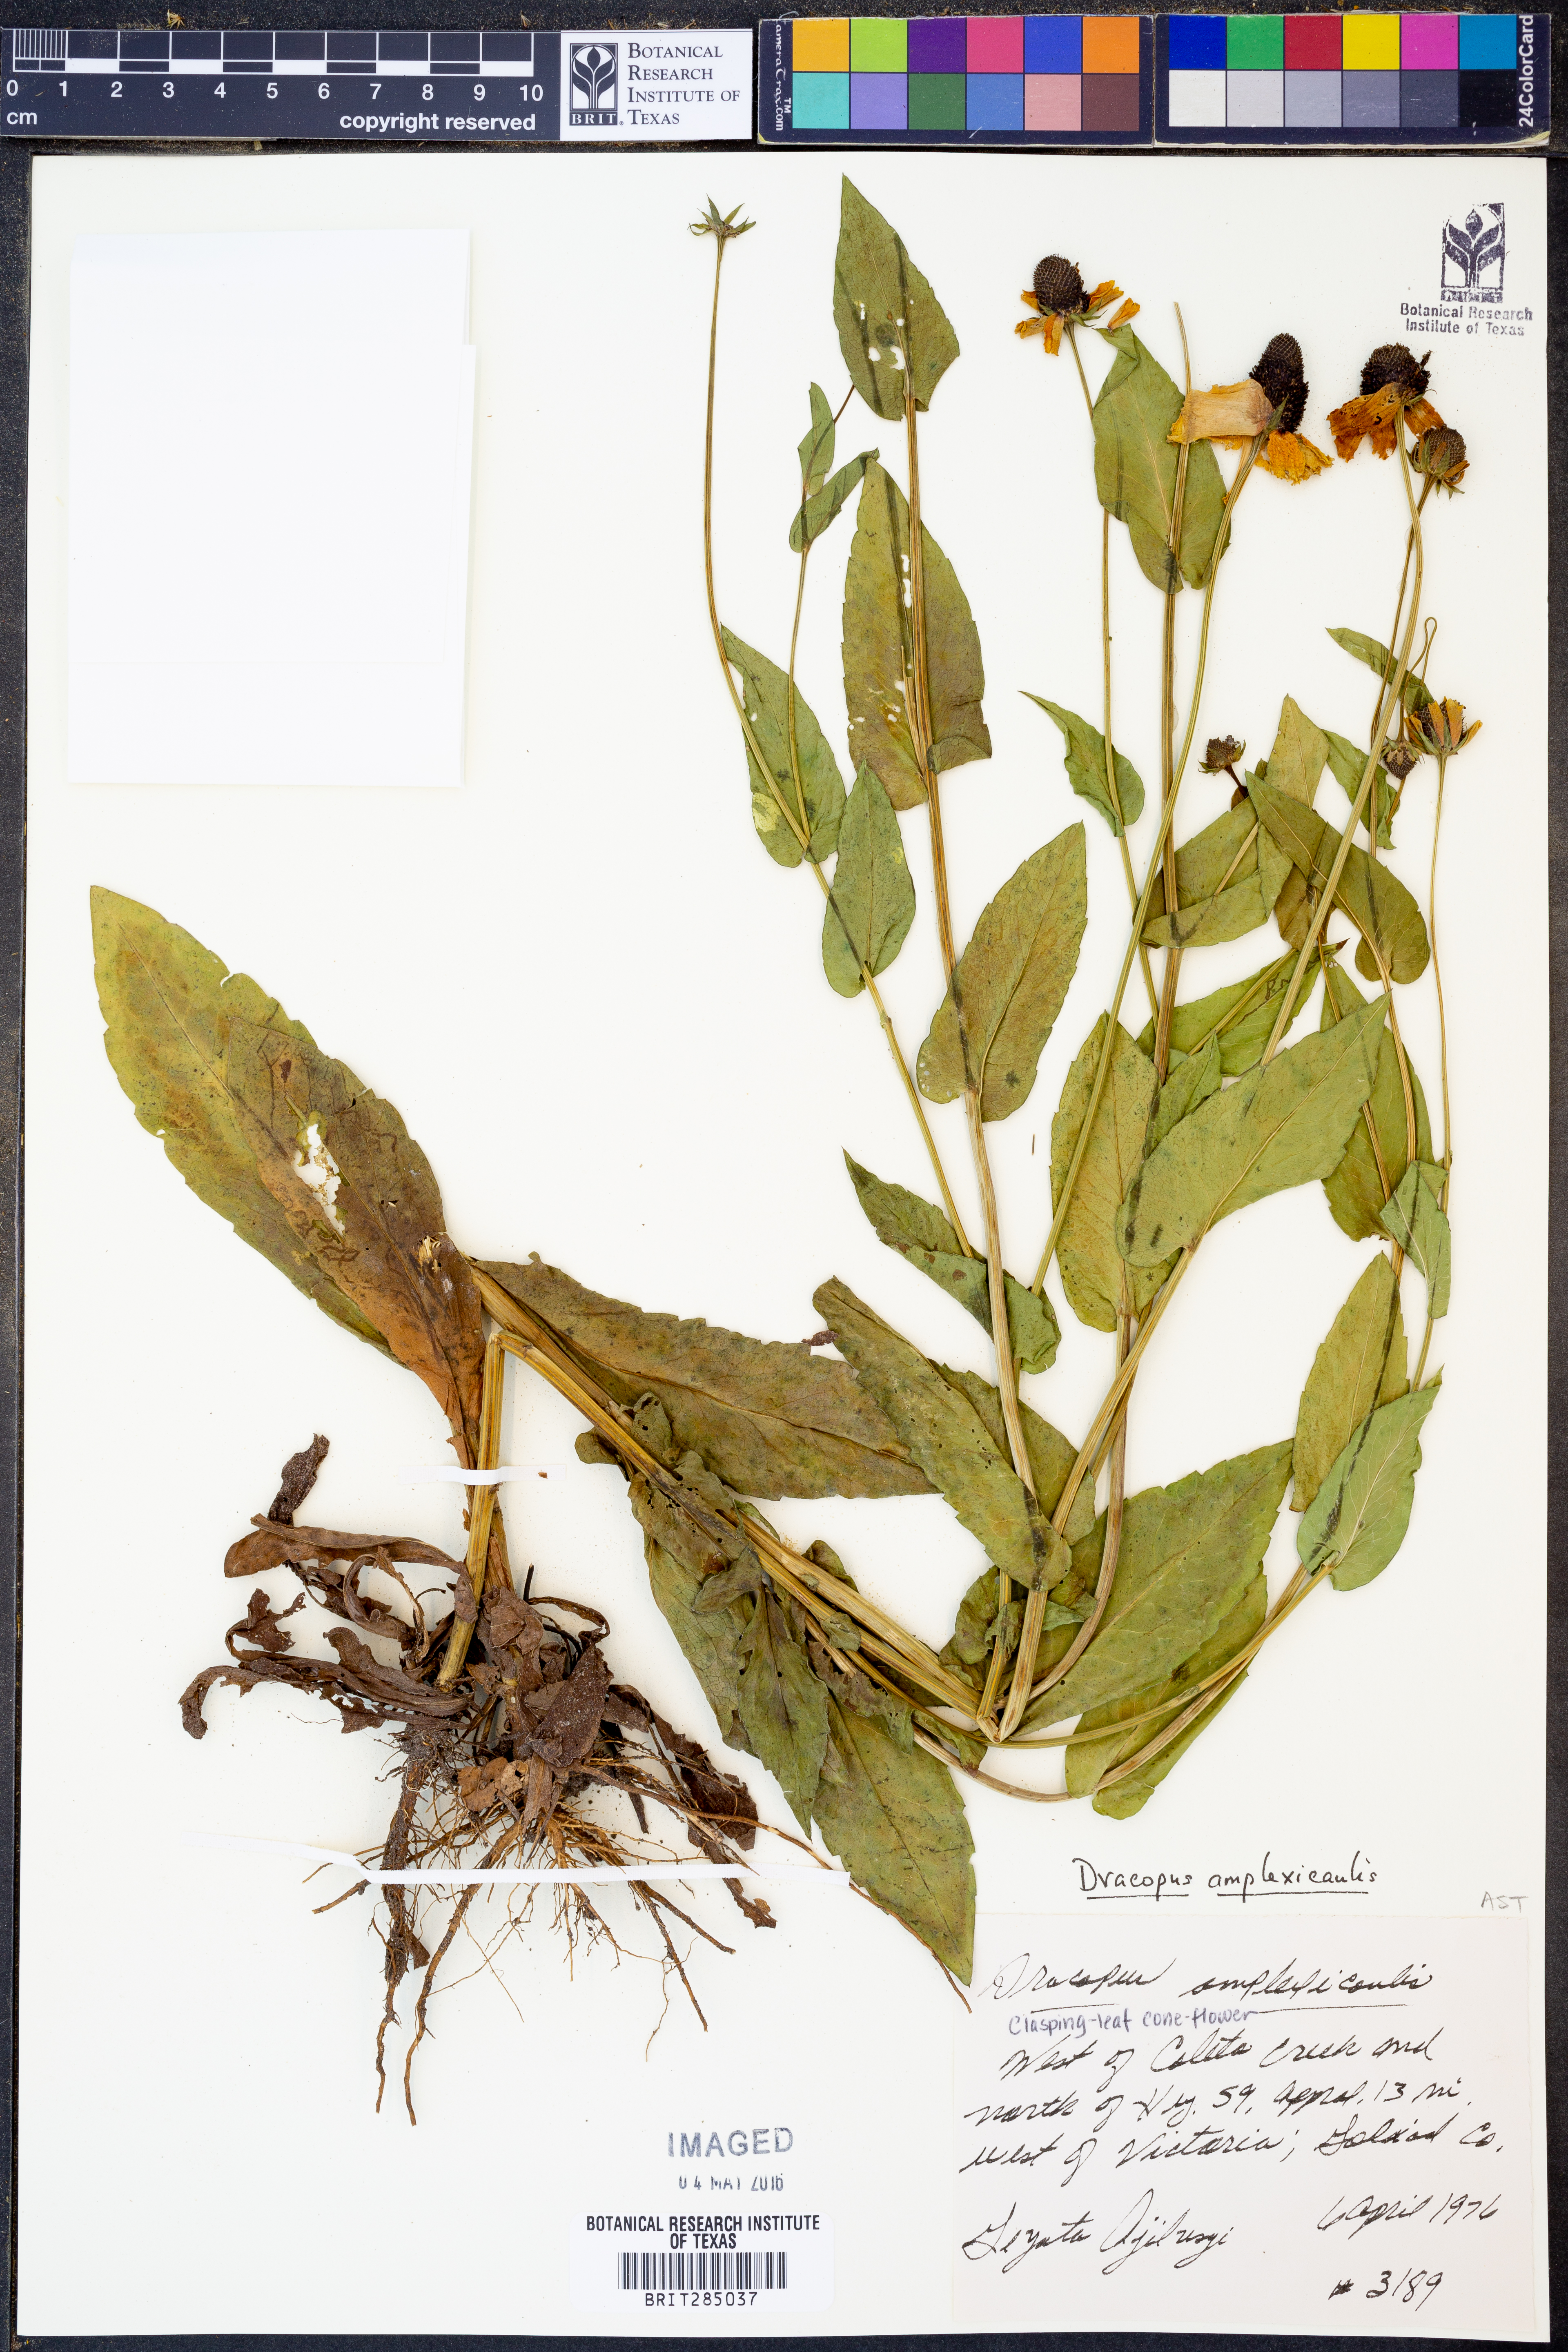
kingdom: Plantae
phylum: Tracheophyta
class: Magnoliopsida
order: Asterales
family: Asteraceae
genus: Rudbeckia
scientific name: Rudbeckia amplexicaulis
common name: Clasping-leaf coneflower
